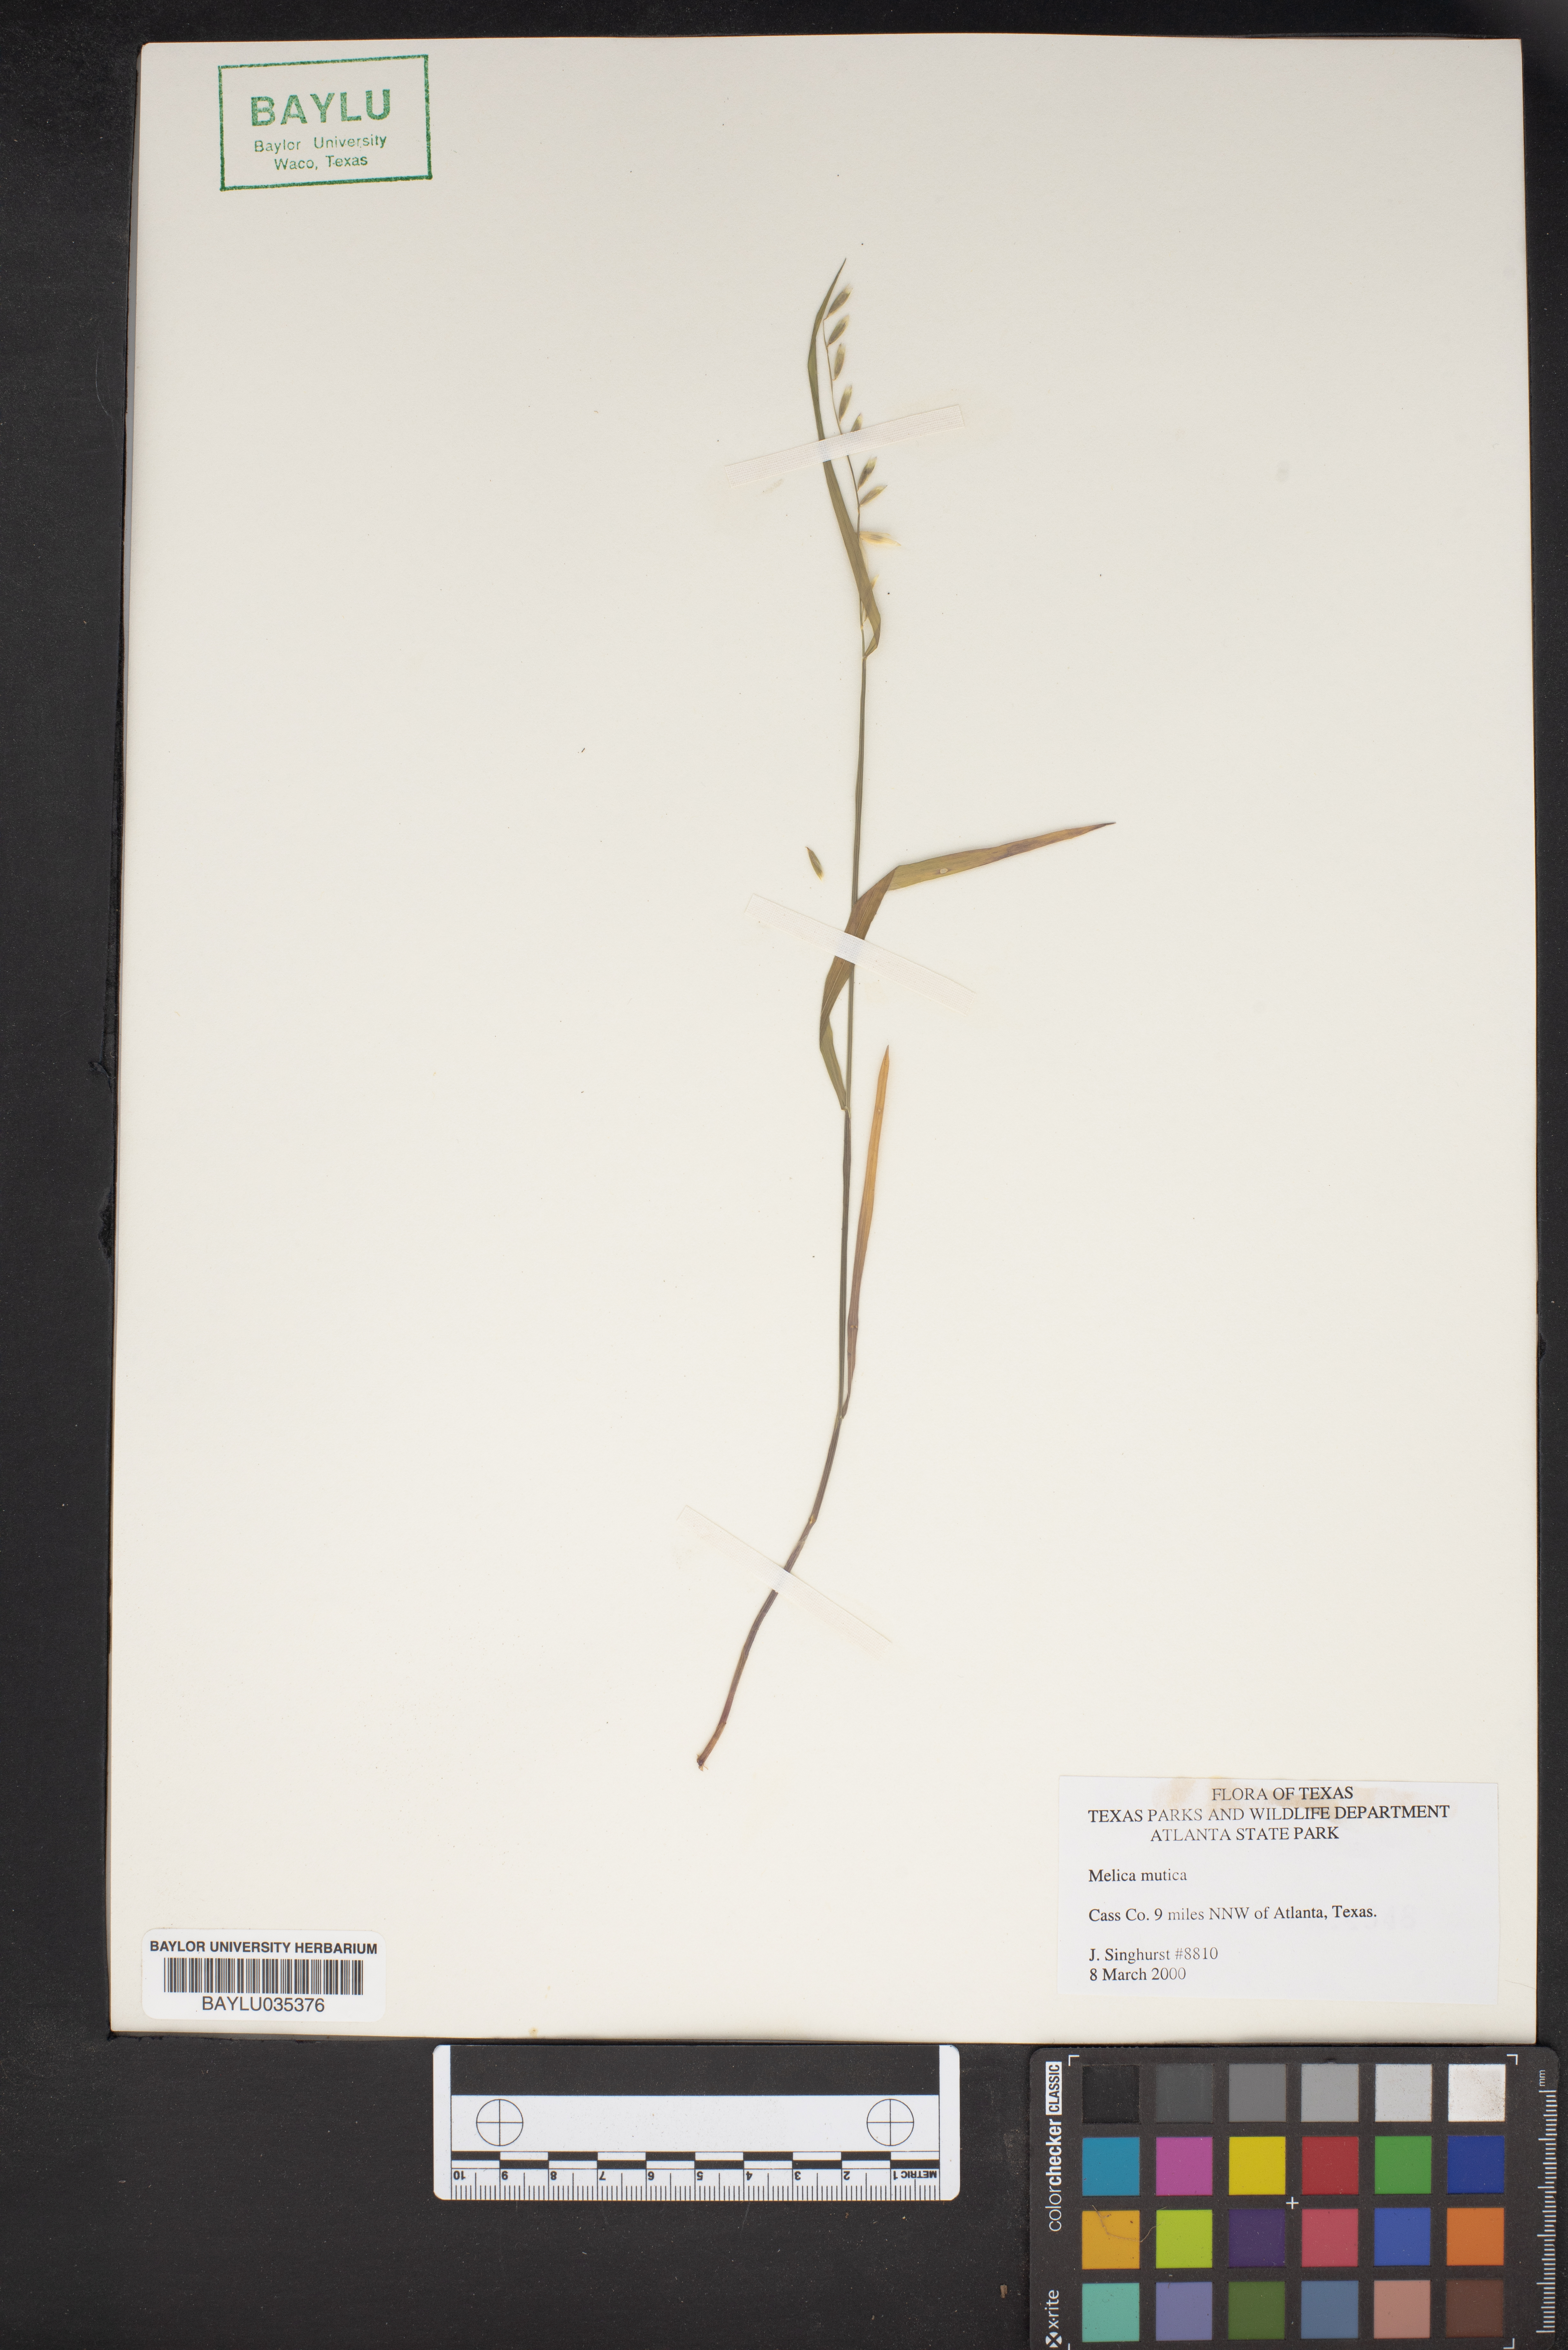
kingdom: Plantae
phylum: Tracheophyta
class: Liliopsida
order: Poales
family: Poaceae
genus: Melica
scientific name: Melica mutica
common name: Two-flower melic
